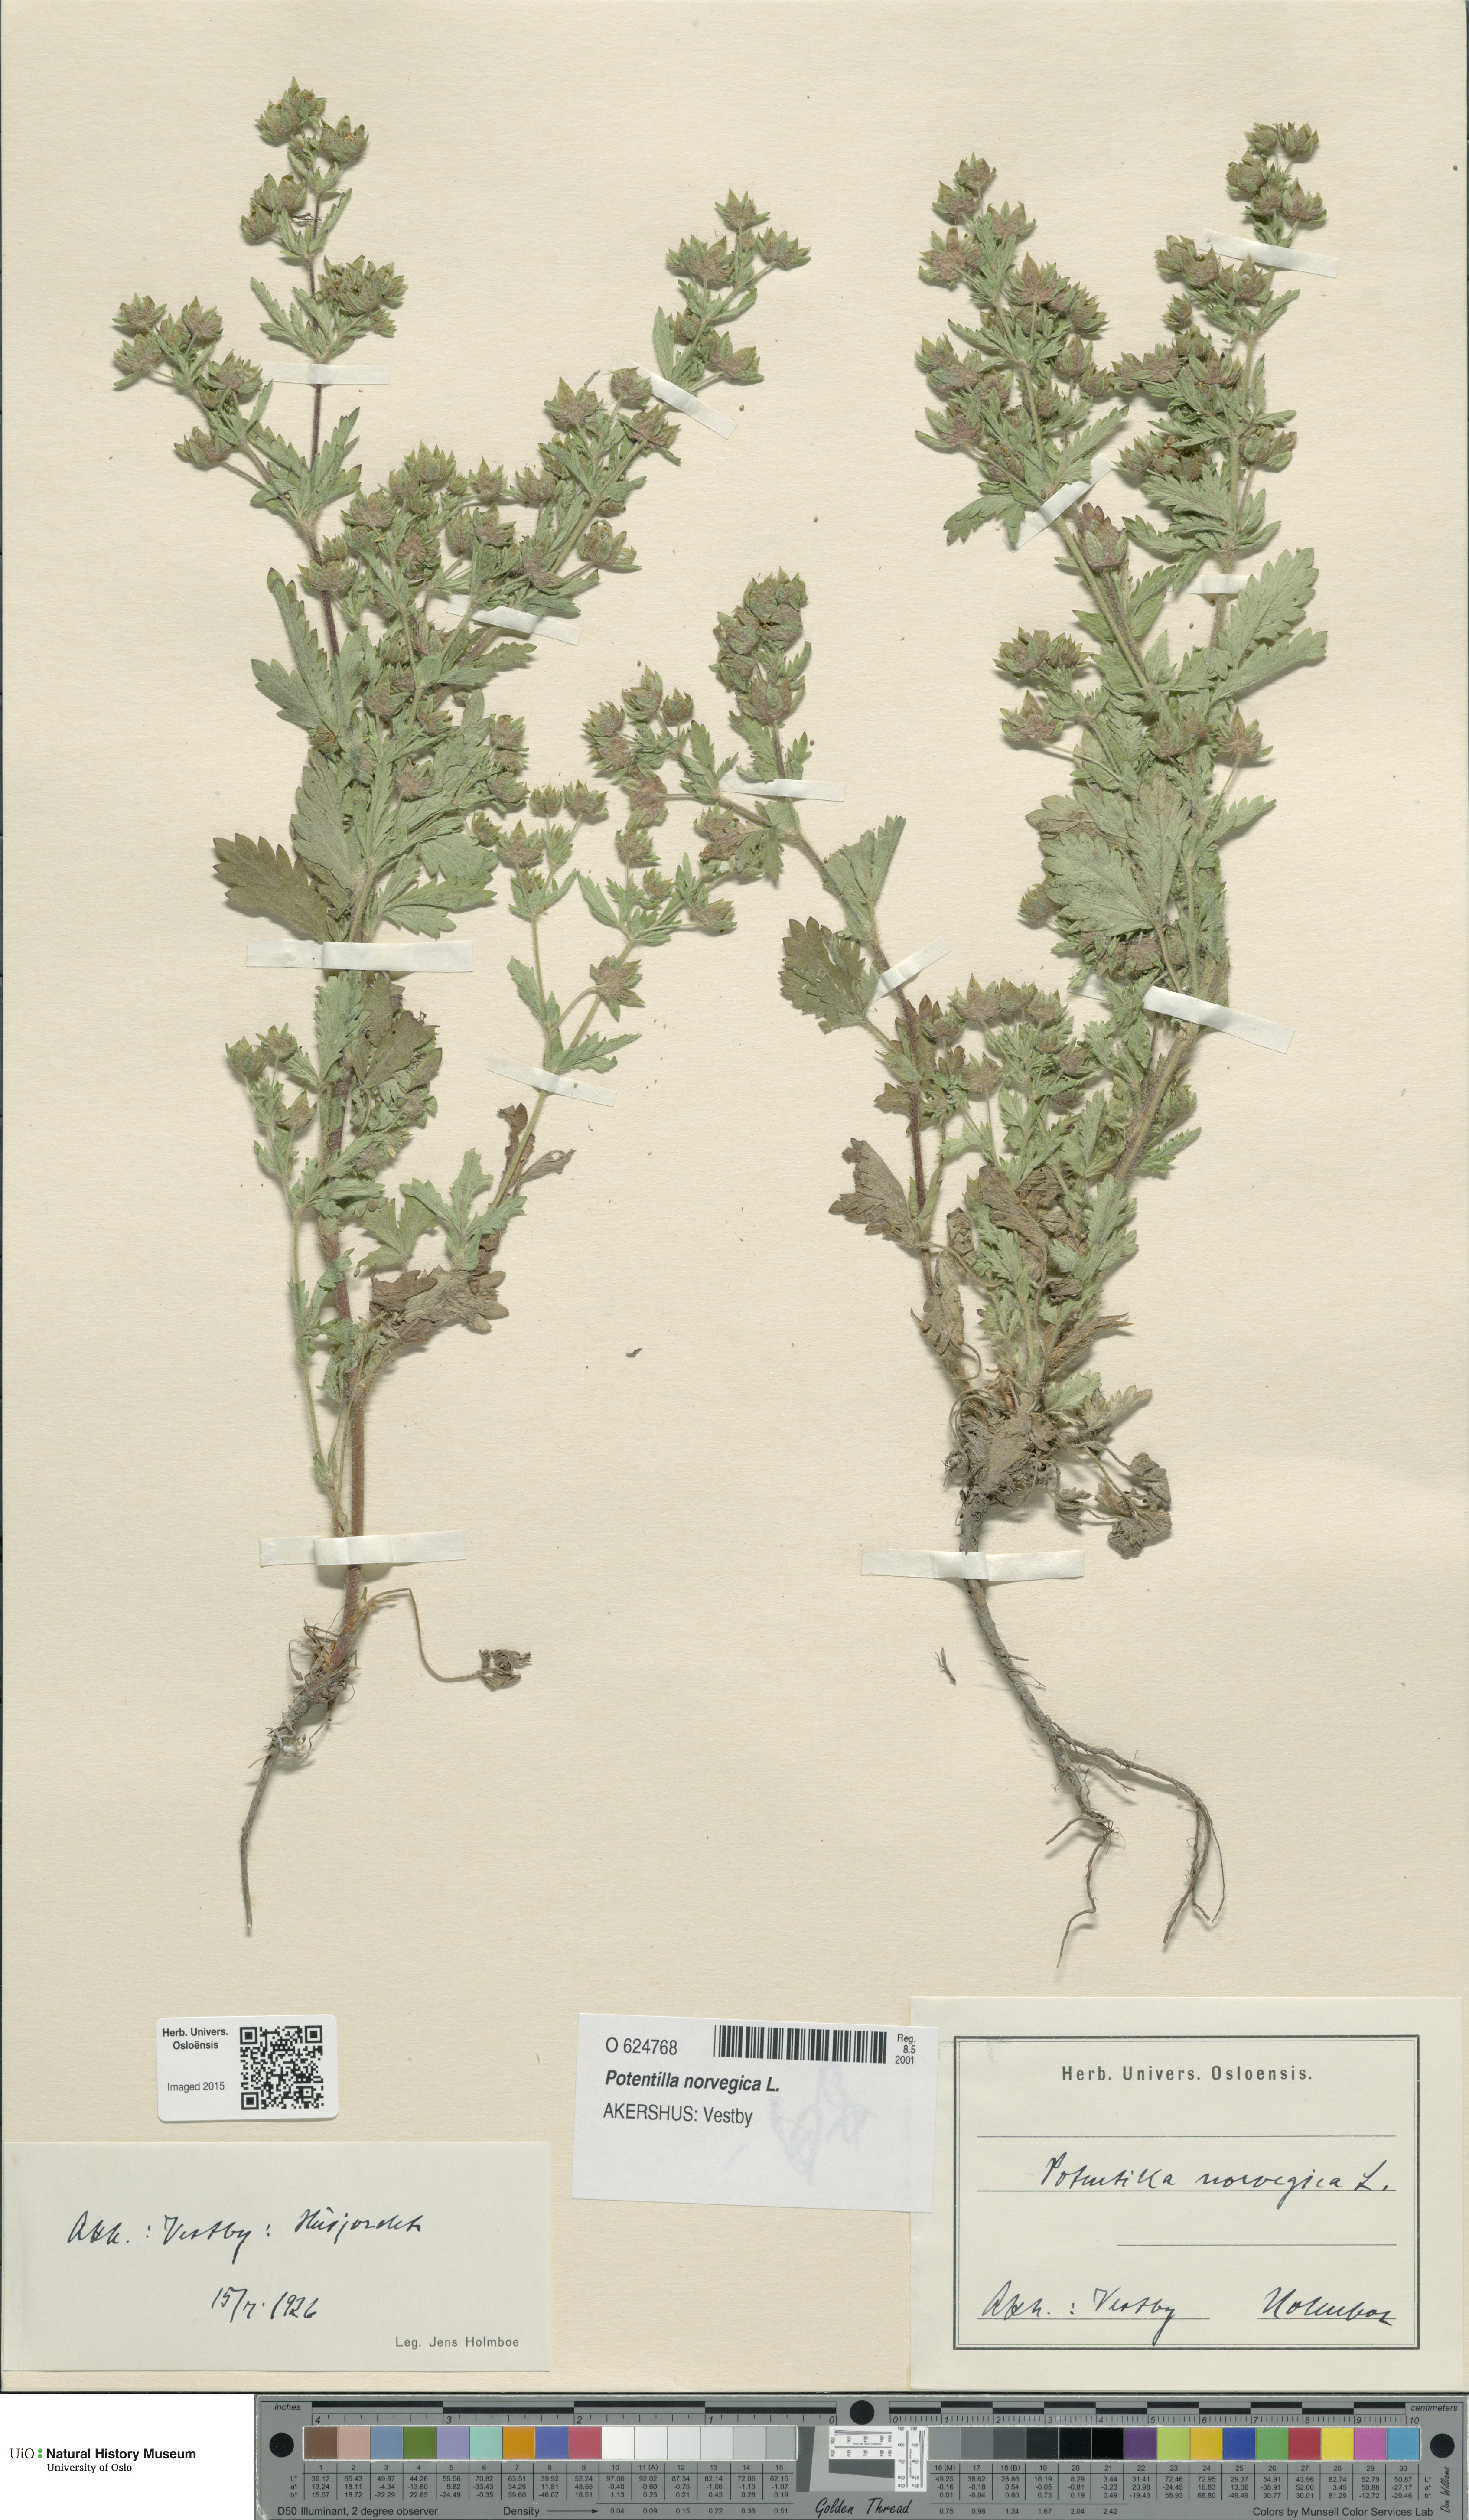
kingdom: Plantae
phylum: Tracheophyta
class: Magnoliopsida
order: Rosales
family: Rosaceae
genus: Potentilla
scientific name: Potentilla norvegica
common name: Ternate-leaved cinquefoil
